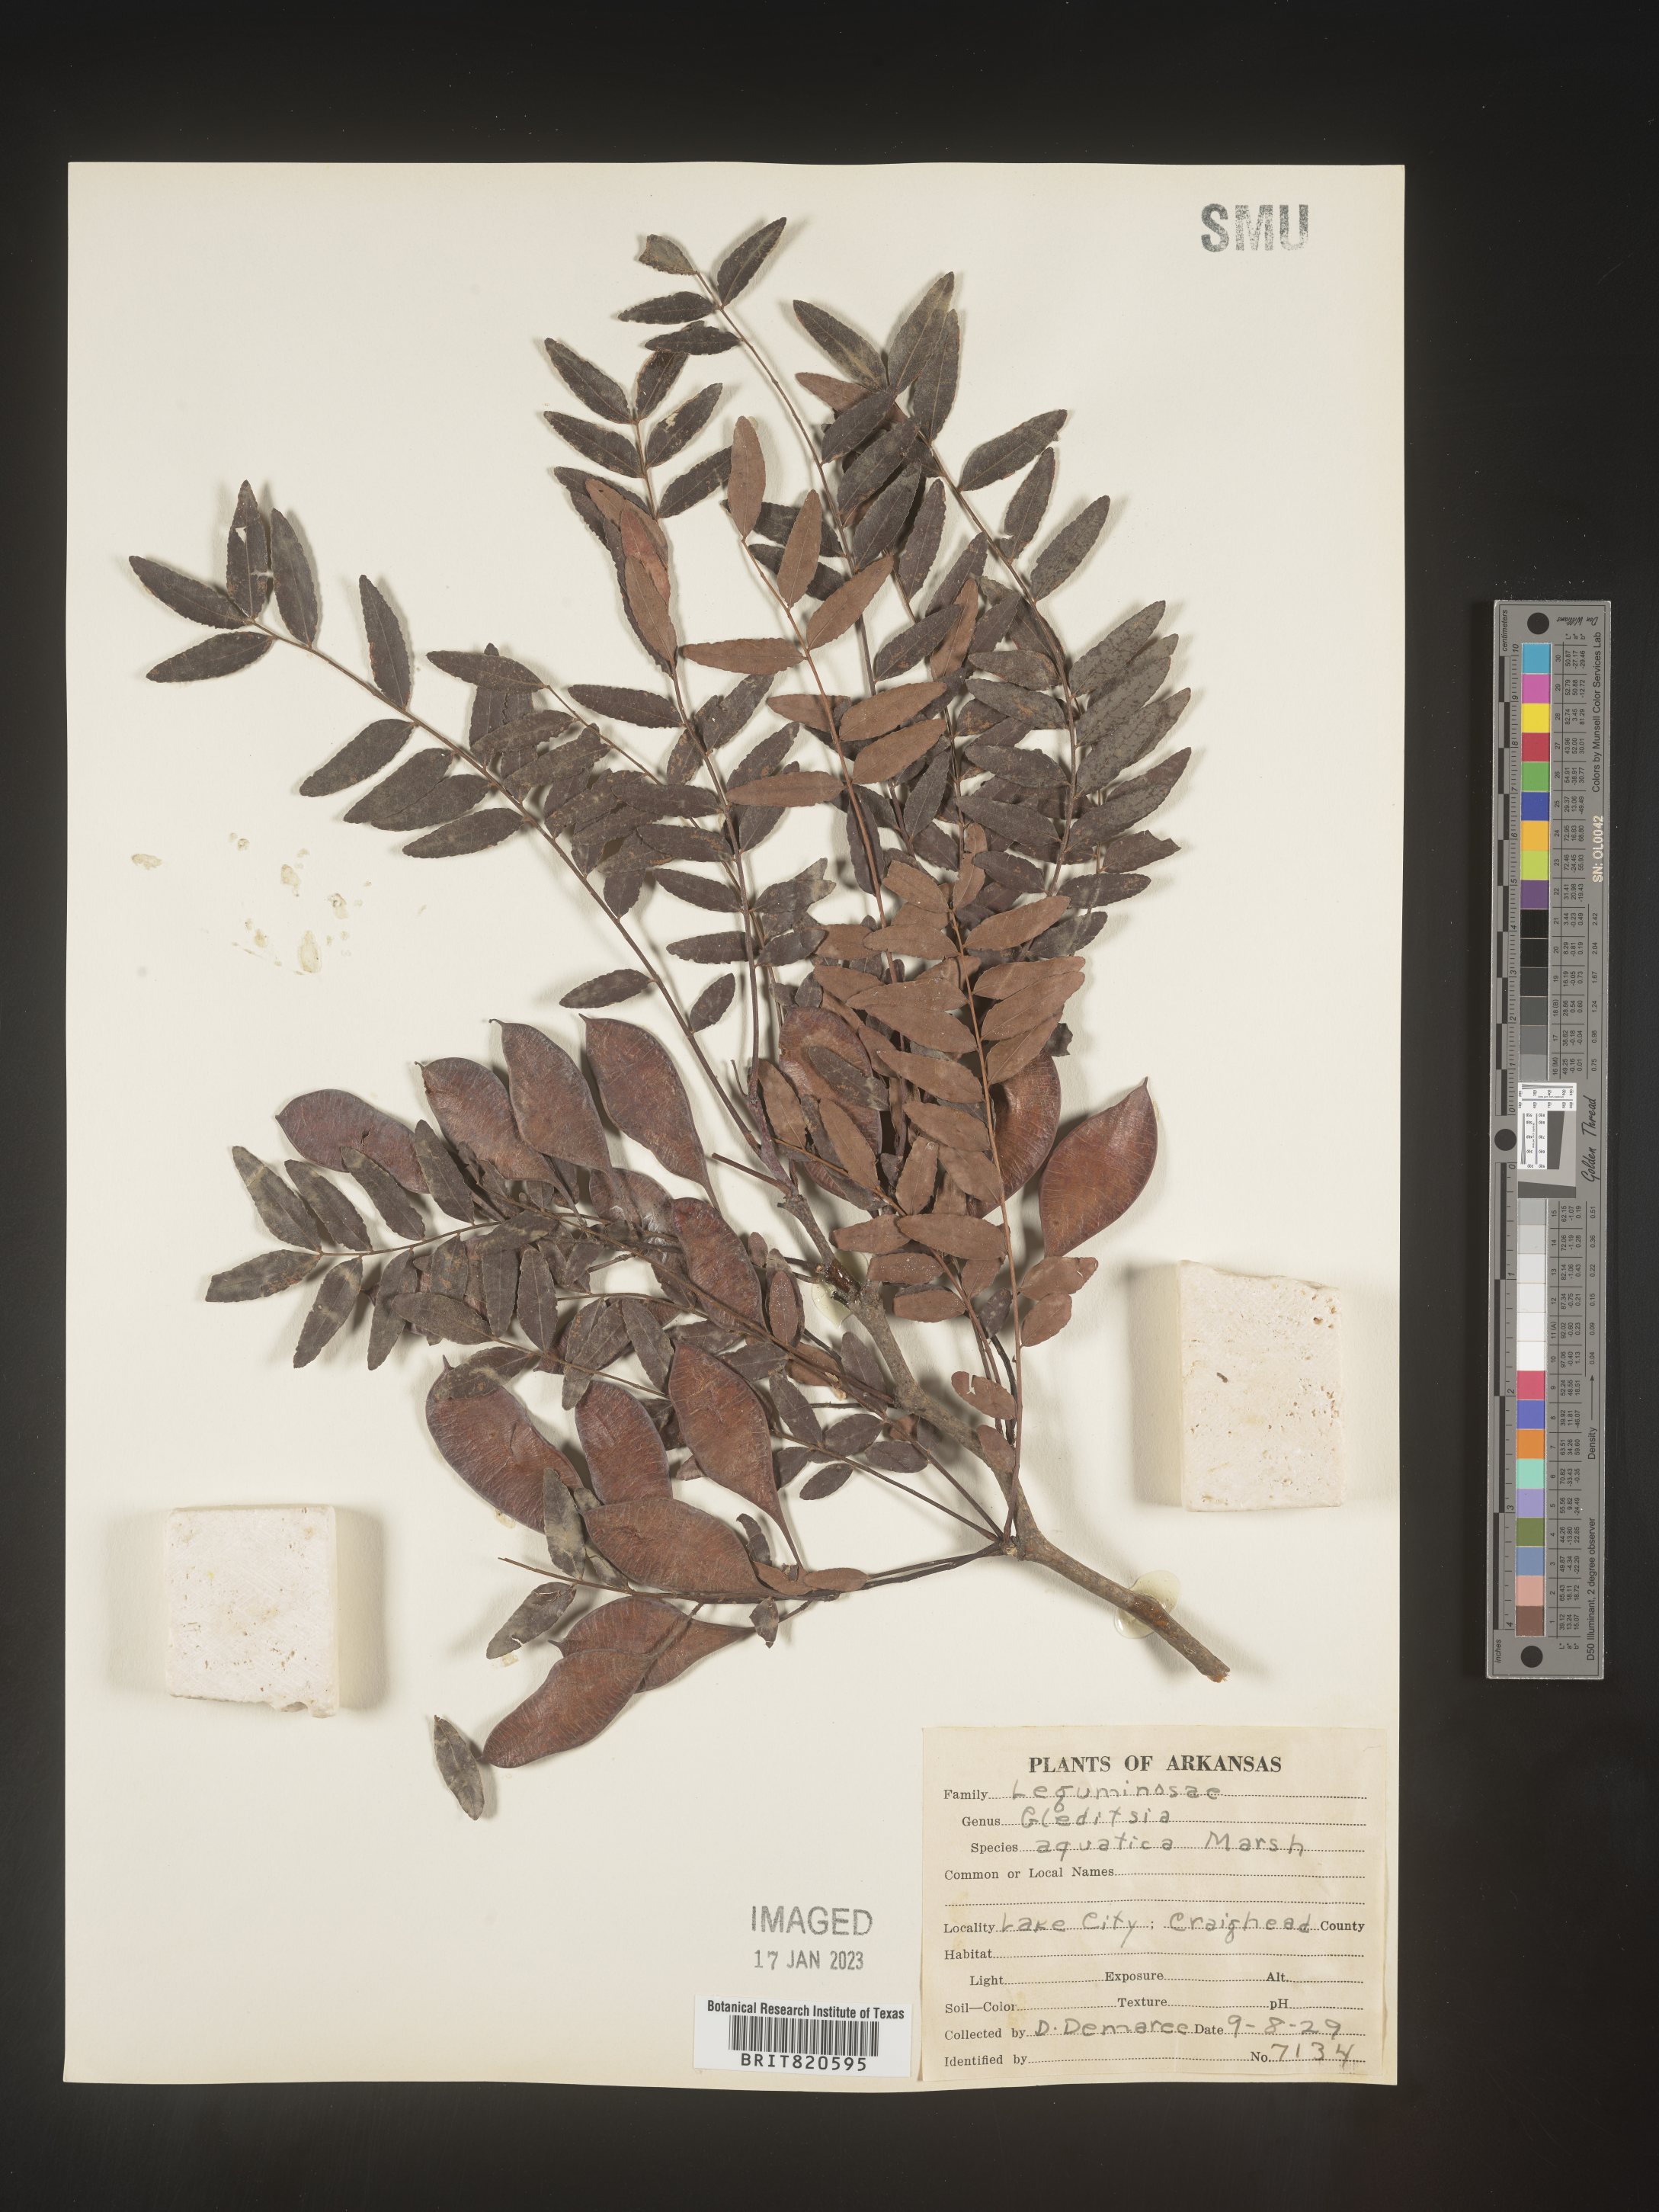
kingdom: Plantae
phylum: Tracheophyta
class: Magnoliopsida
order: Fabales
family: Fabaceae
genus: Gleditsia
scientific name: Gleditsia aquatica
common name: Swamp-locust
